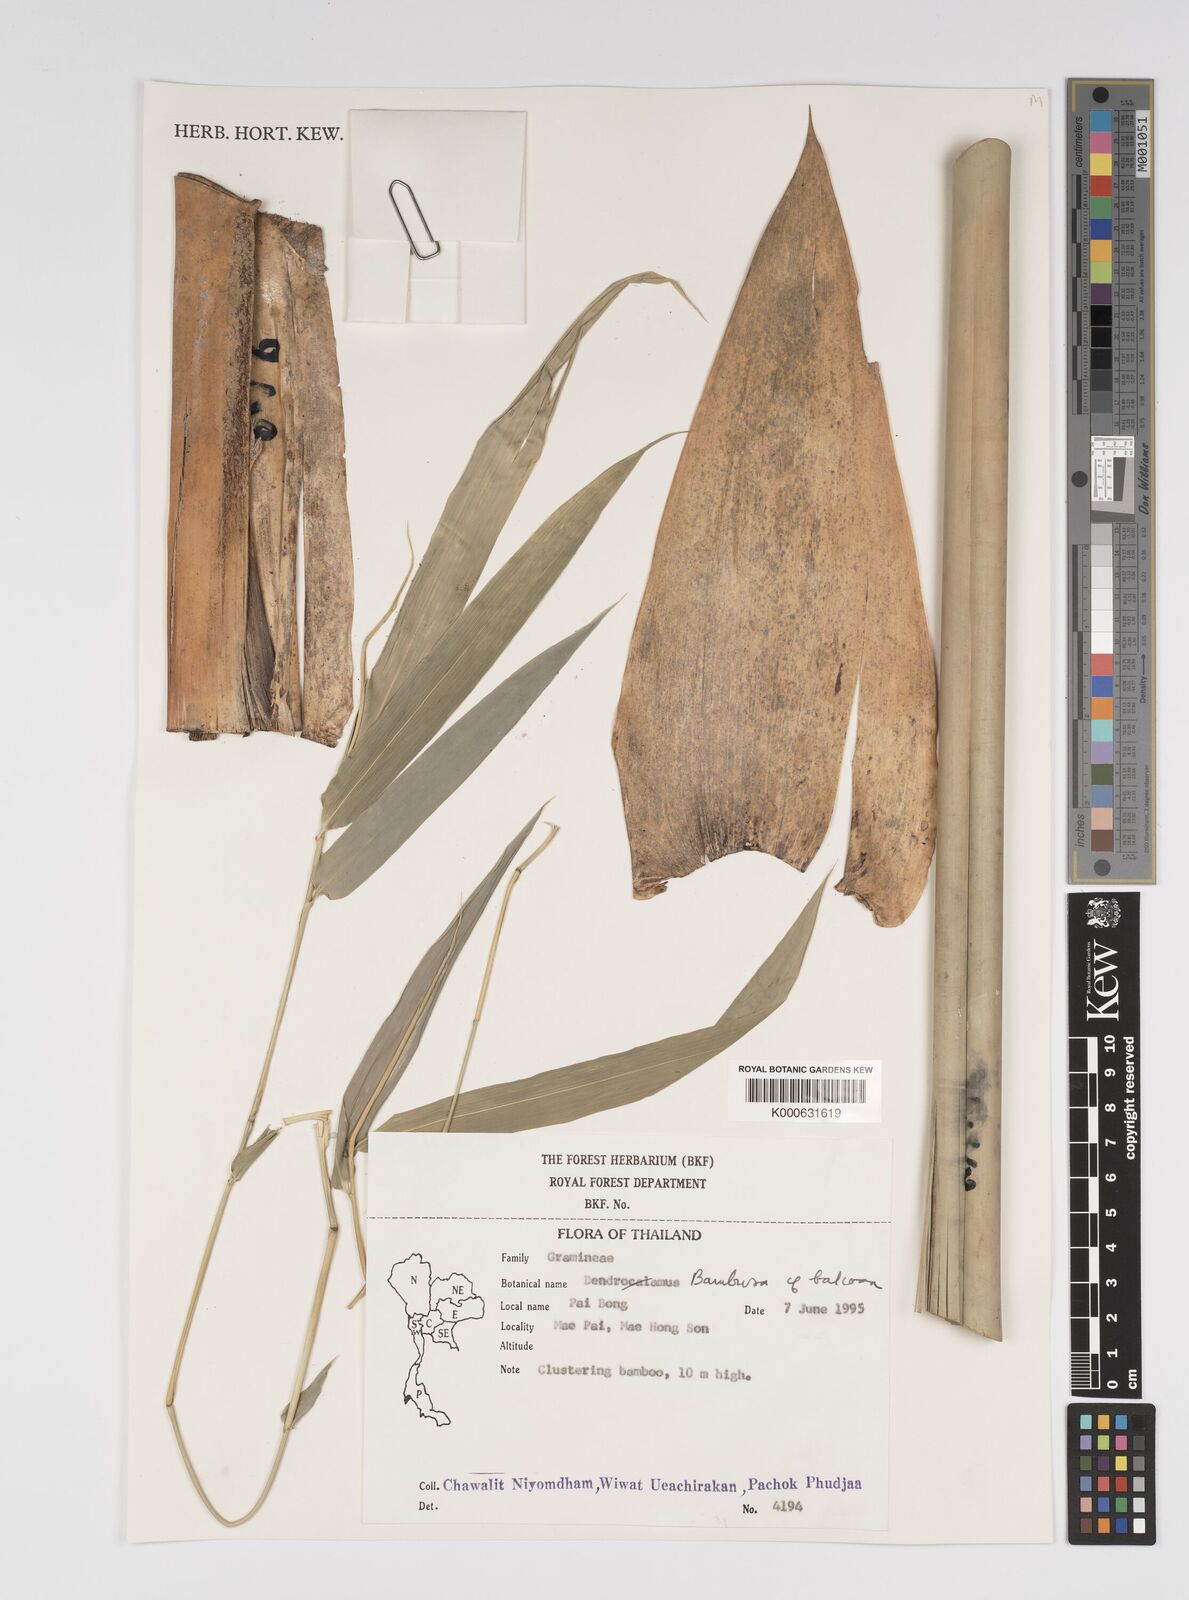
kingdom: Plantae
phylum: Tracheophyta
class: Liliopsida
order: Poales
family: Poaceae
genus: Bambusa
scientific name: Bambusa balcooa
